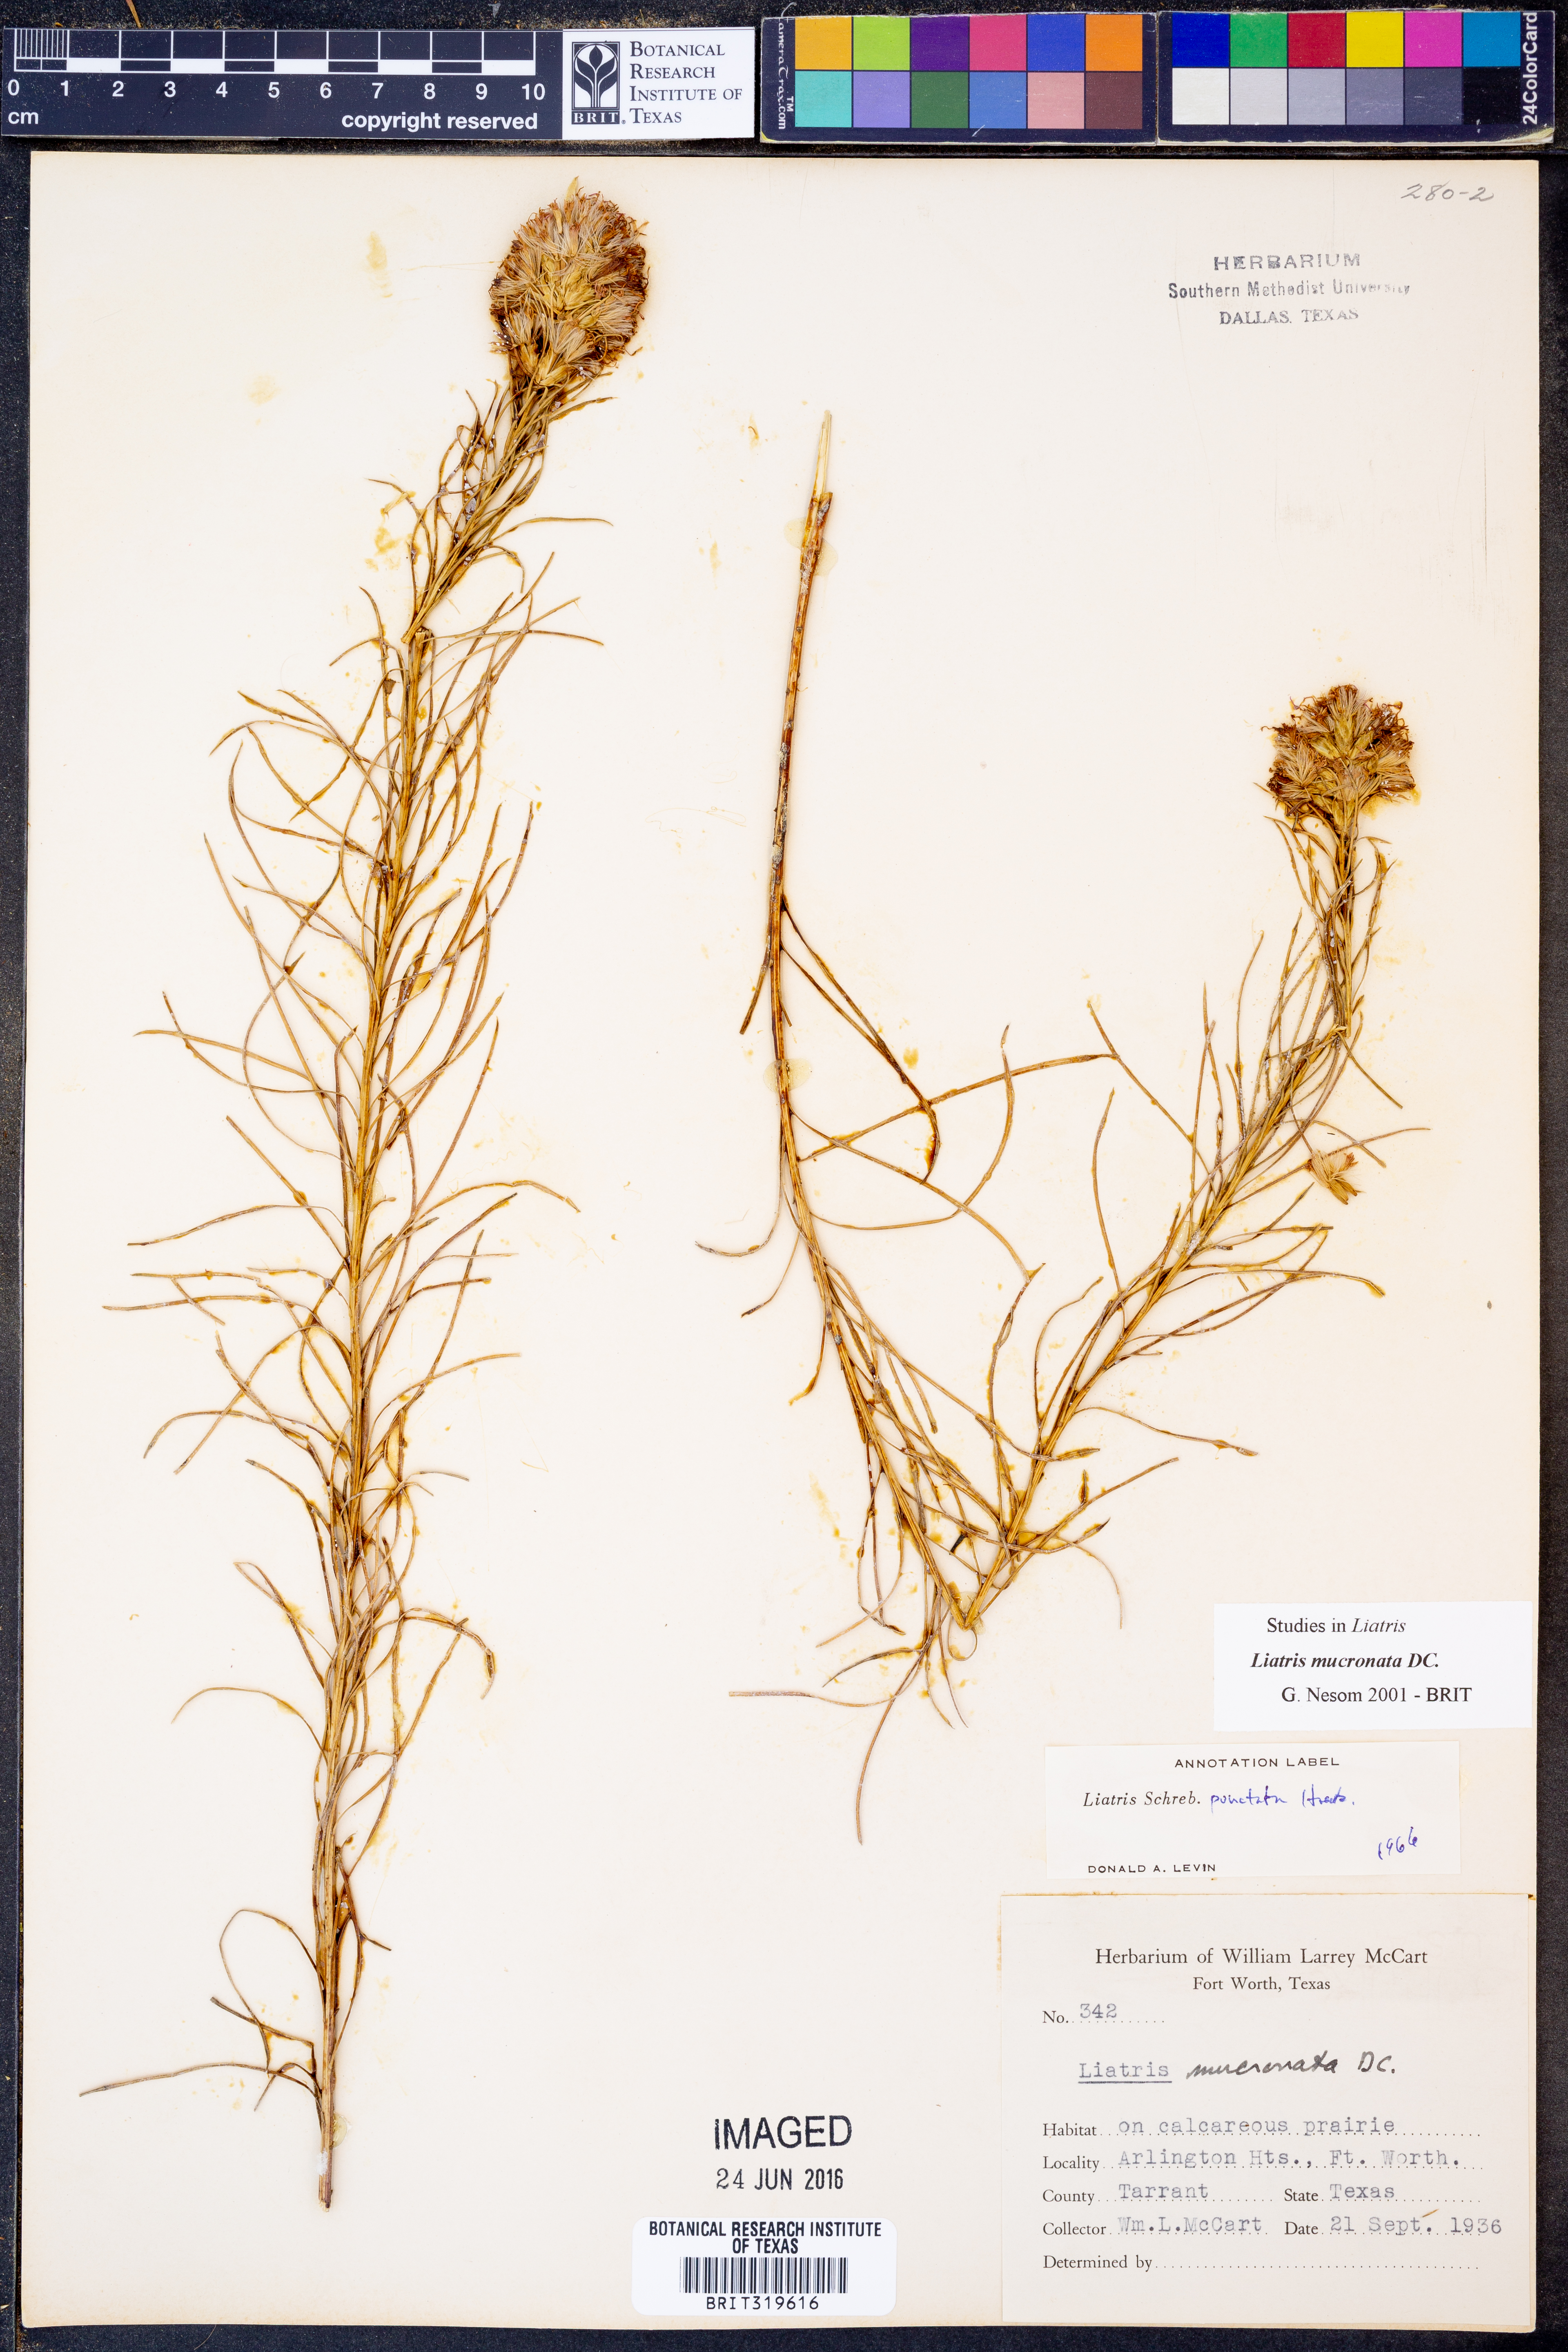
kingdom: Plantae
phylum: Tracheophyta
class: Magnoliopsida
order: Asterales
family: Asteraceae
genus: Liatris
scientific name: Liatris mucronata
